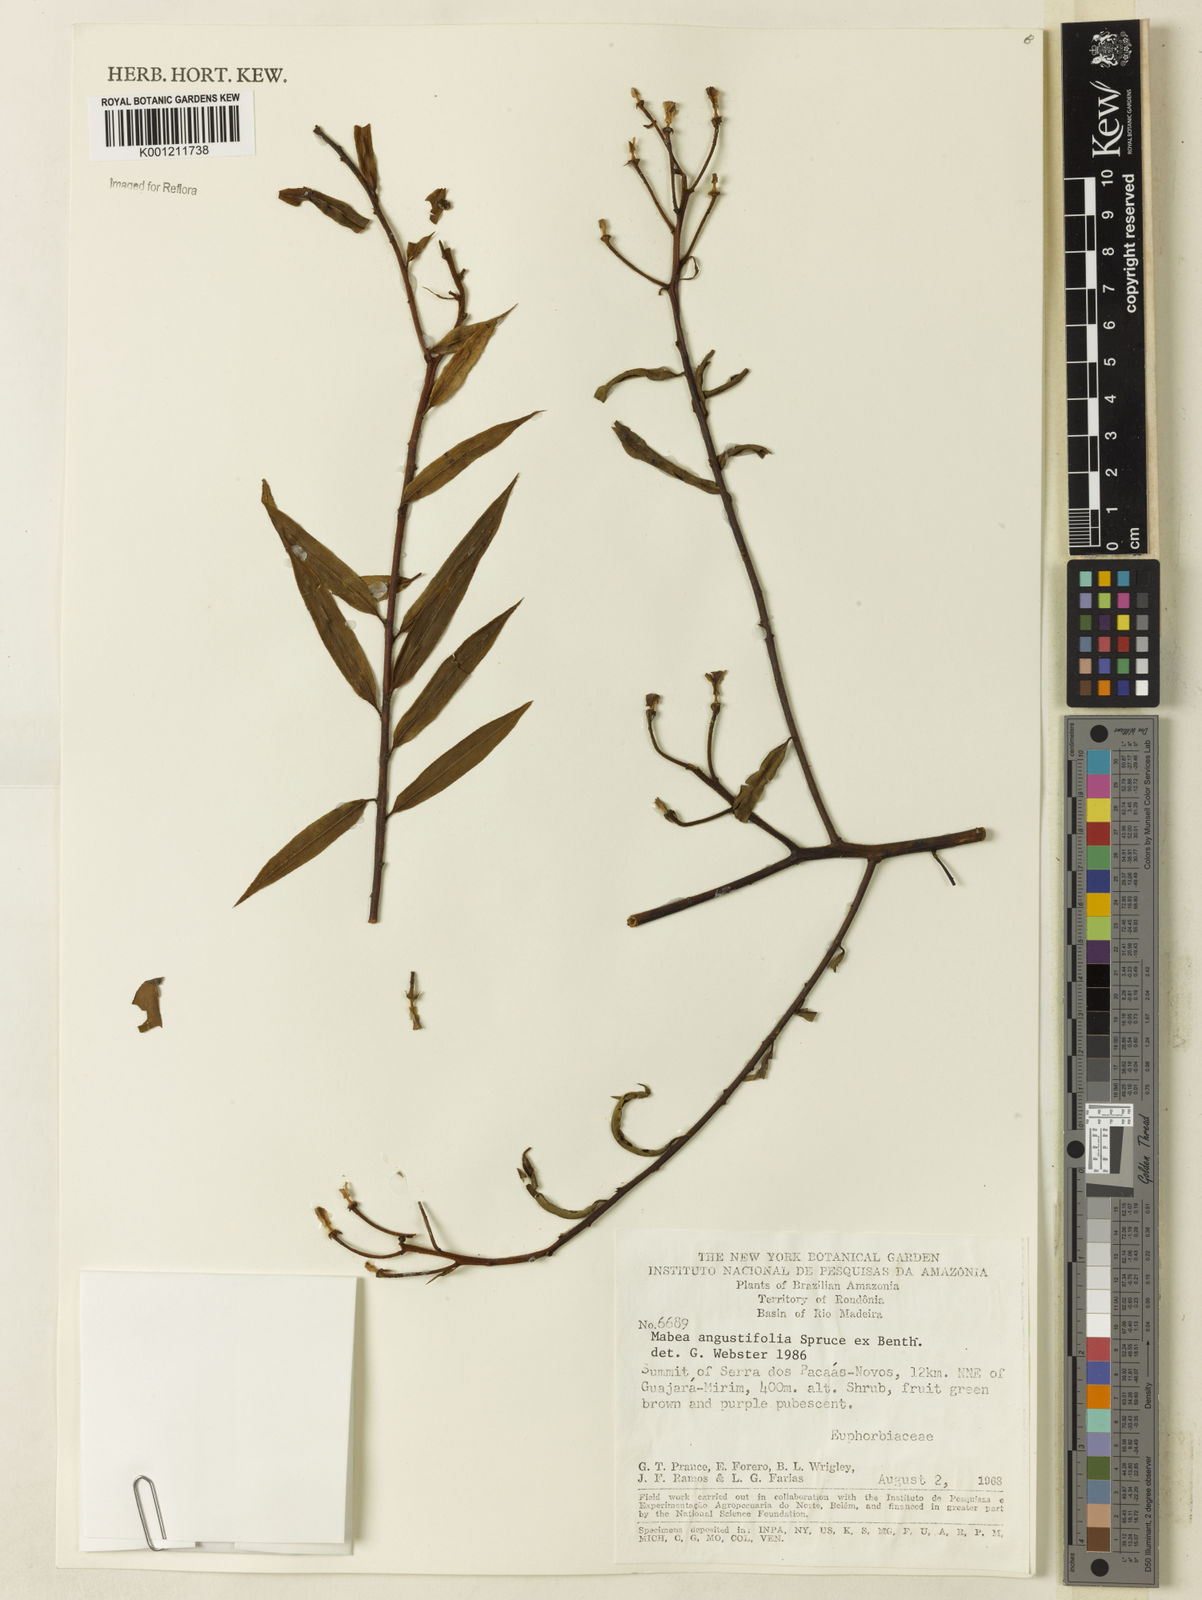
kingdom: Plantae
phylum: Tracheophyta
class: Magnoliopsida
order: Malpighiales
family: Euphorbiaceae
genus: Mabea
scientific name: Mabea angustifolia
